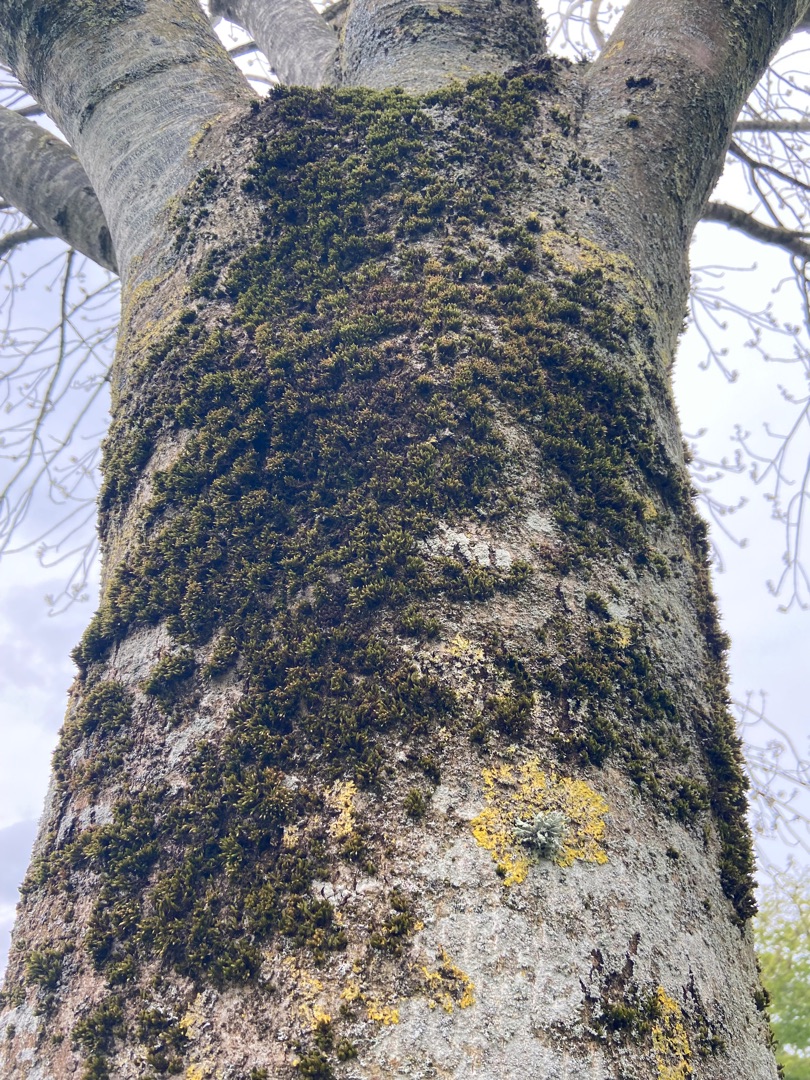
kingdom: Plantae
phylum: Bryophyta
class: Bryopsida
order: Orthotrichales
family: Orthotrichaceae
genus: Lewinskya
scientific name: Lewinskya affinis
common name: Almindelig furehætte
